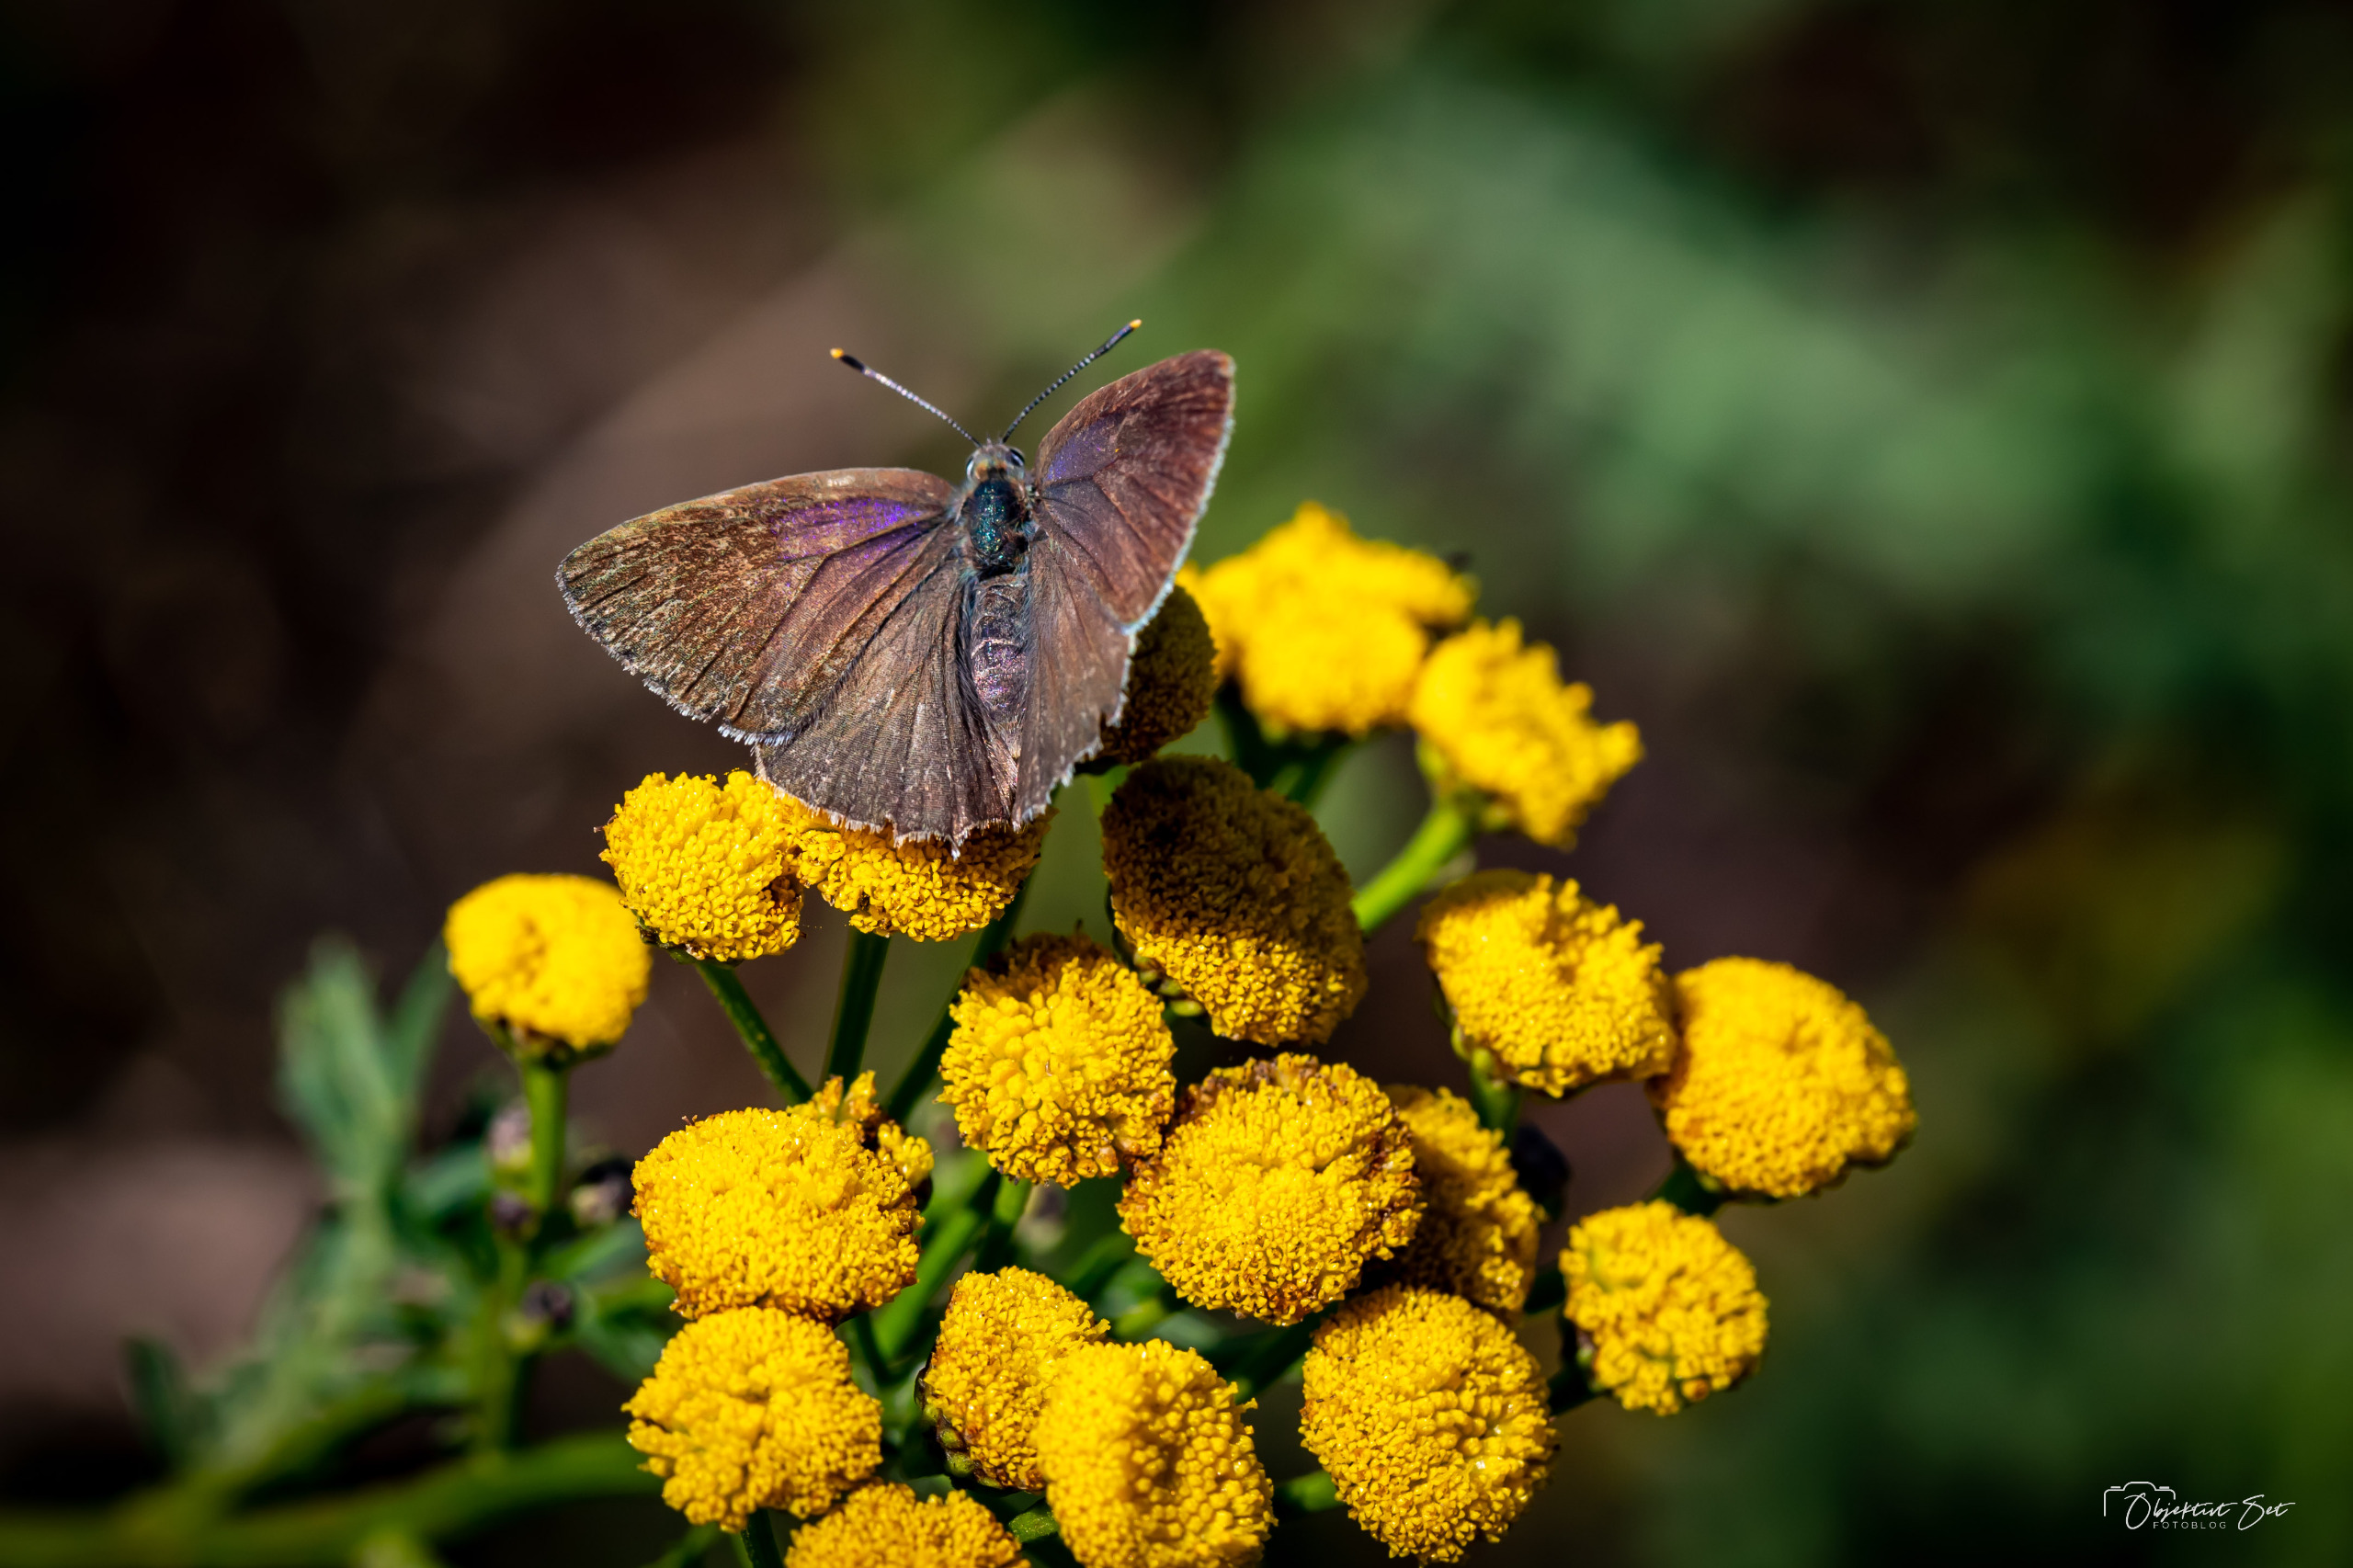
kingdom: Animalia
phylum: Arthropoda
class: Insecta
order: Lepidoptera
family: Lycaenidae
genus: Quercusia
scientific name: Quercusia quercus
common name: Blåhale
